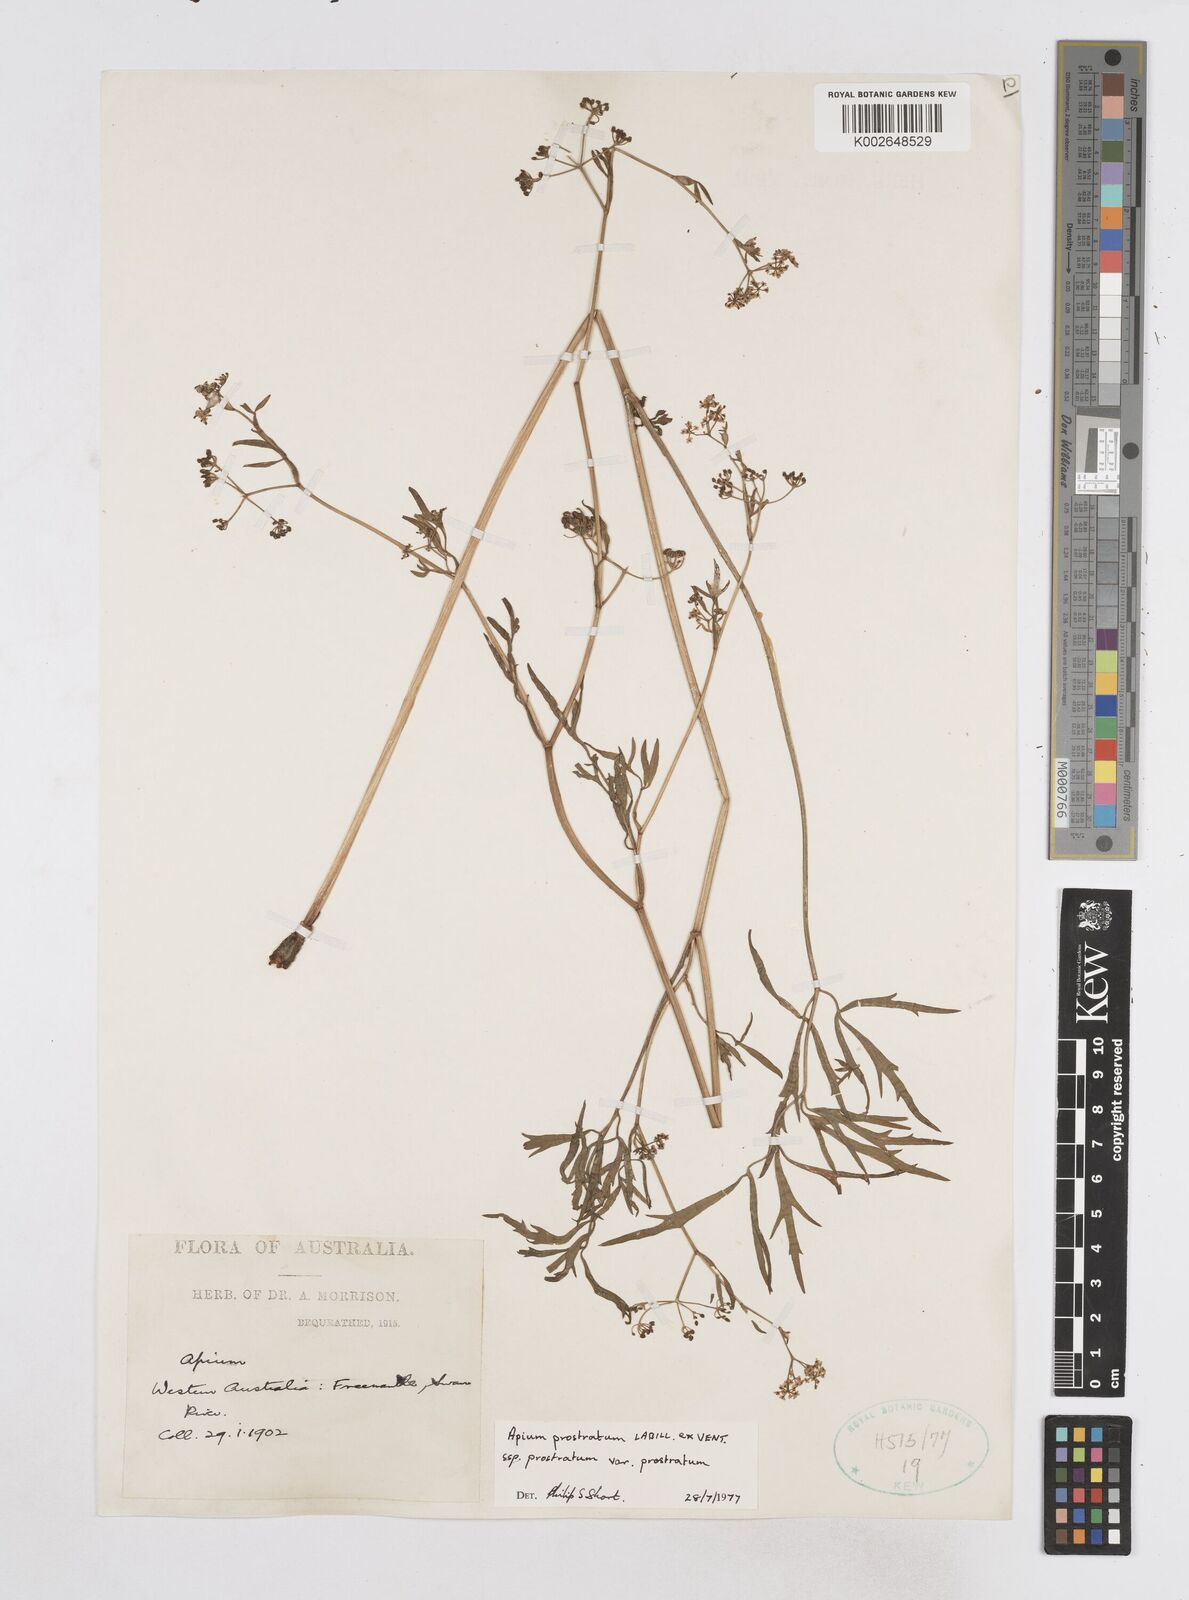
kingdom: Plantae
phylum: Tracheophyta
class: Magnoliopsida
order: Apiales
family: Apiaceae
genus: Apium
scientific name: Apium prostratum
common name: Prostrate marshwort
